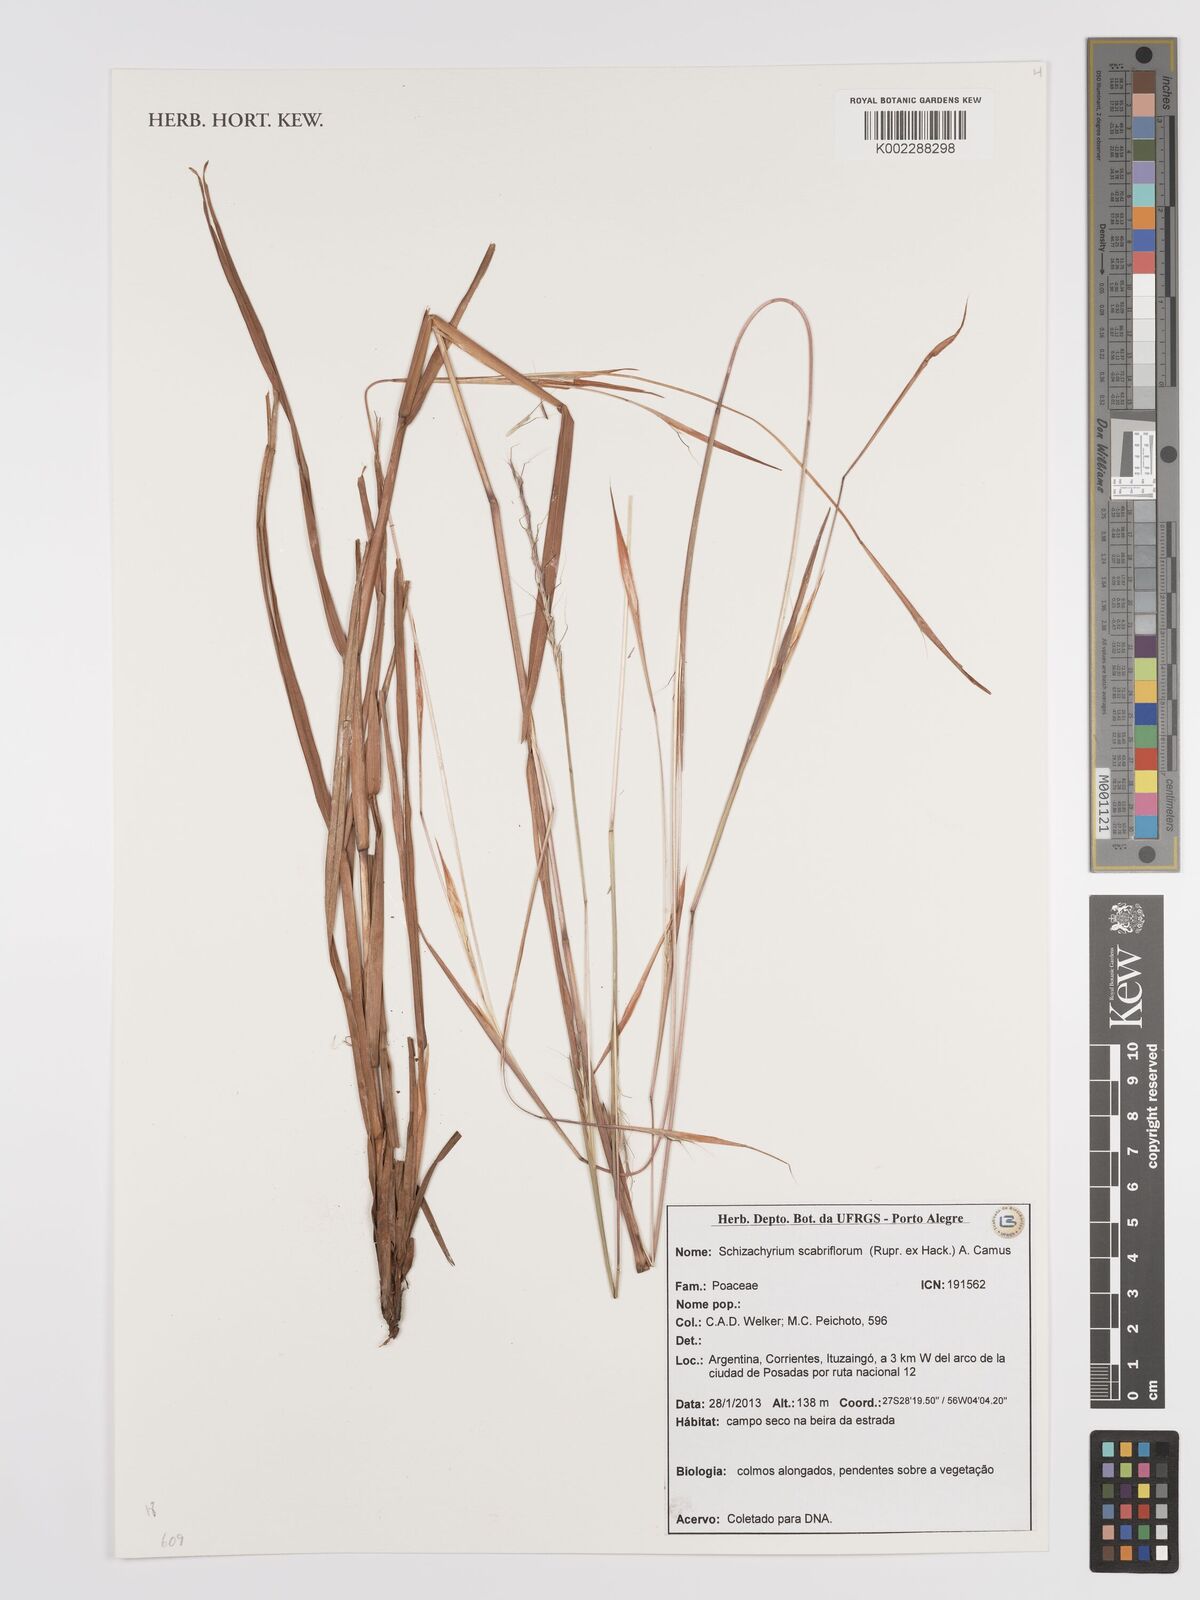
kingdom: Plantae
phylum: Tracheophyta
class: Liliopsida
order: Poales
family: Poaceae
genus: Schizachyrium
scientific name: Schizachyrium scabriflorum
